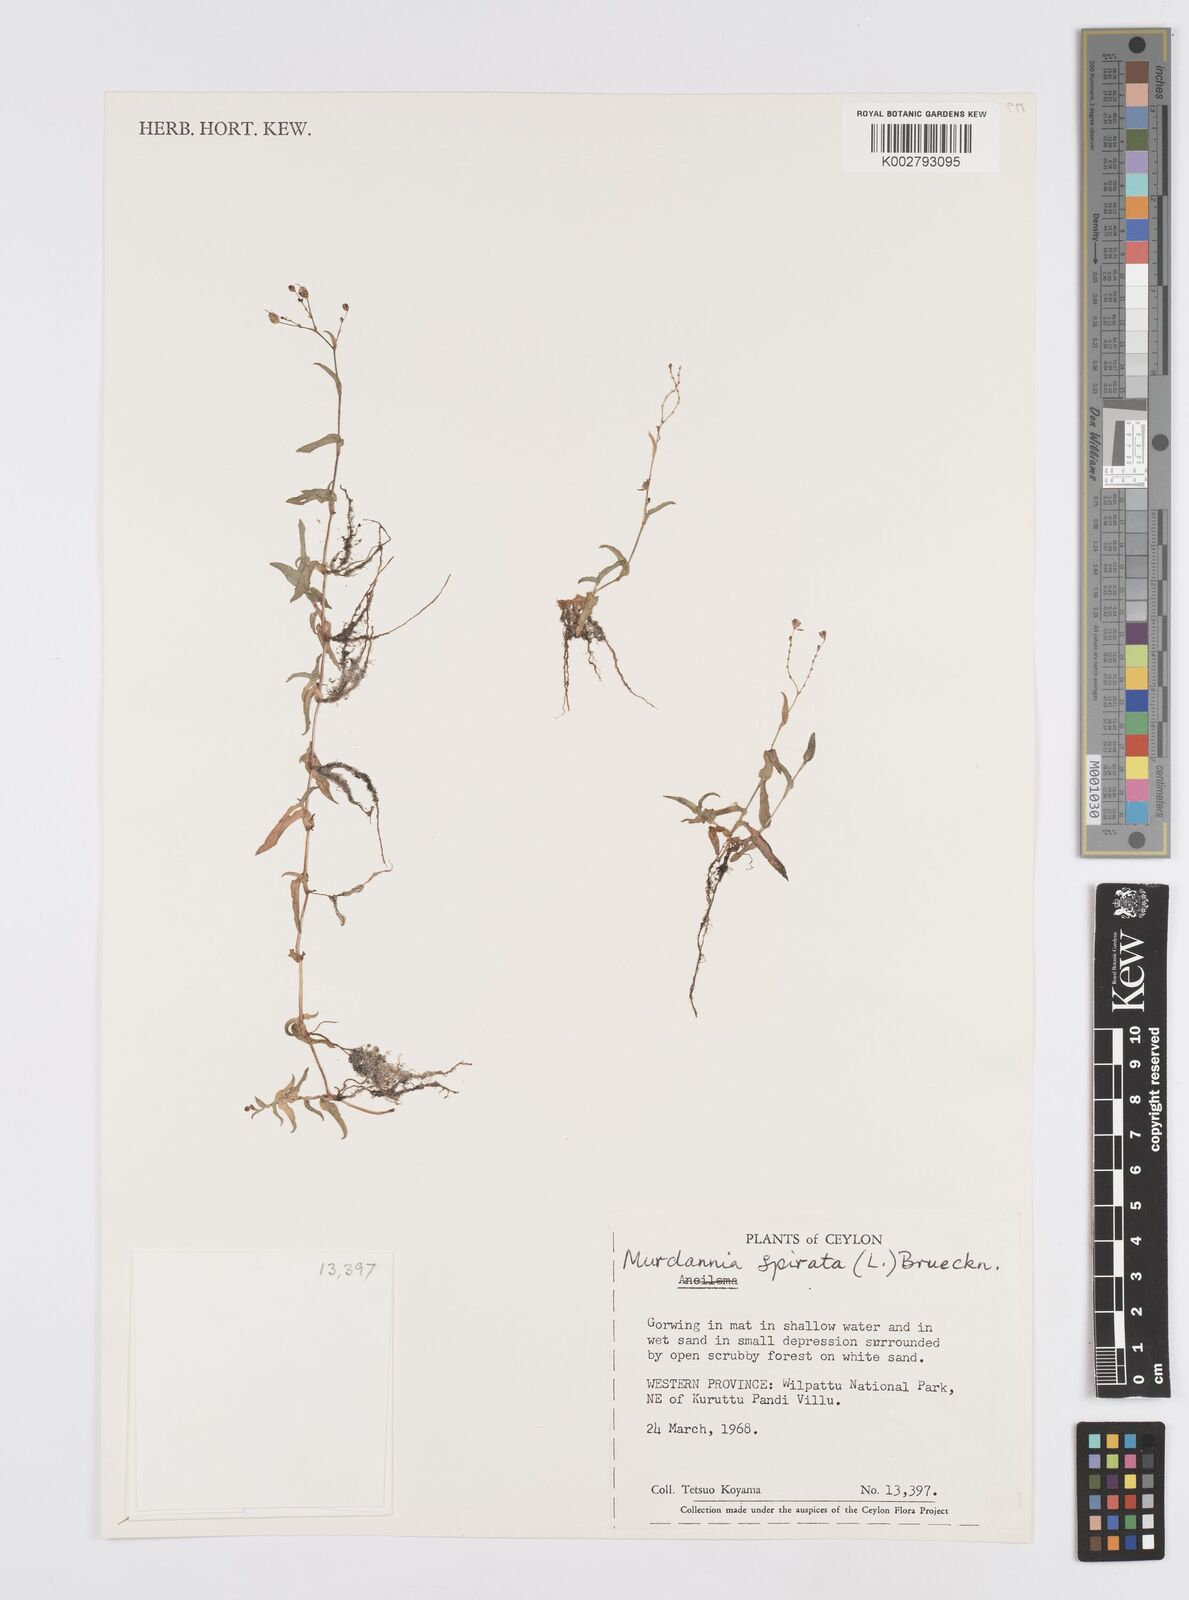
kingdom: Plantae
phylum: Tracheophyta
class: Liliopsida
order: Commelinales
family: Commelinaceae
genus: Murdannia
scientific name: Murdannia spirata
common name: Asiatic dewflower
